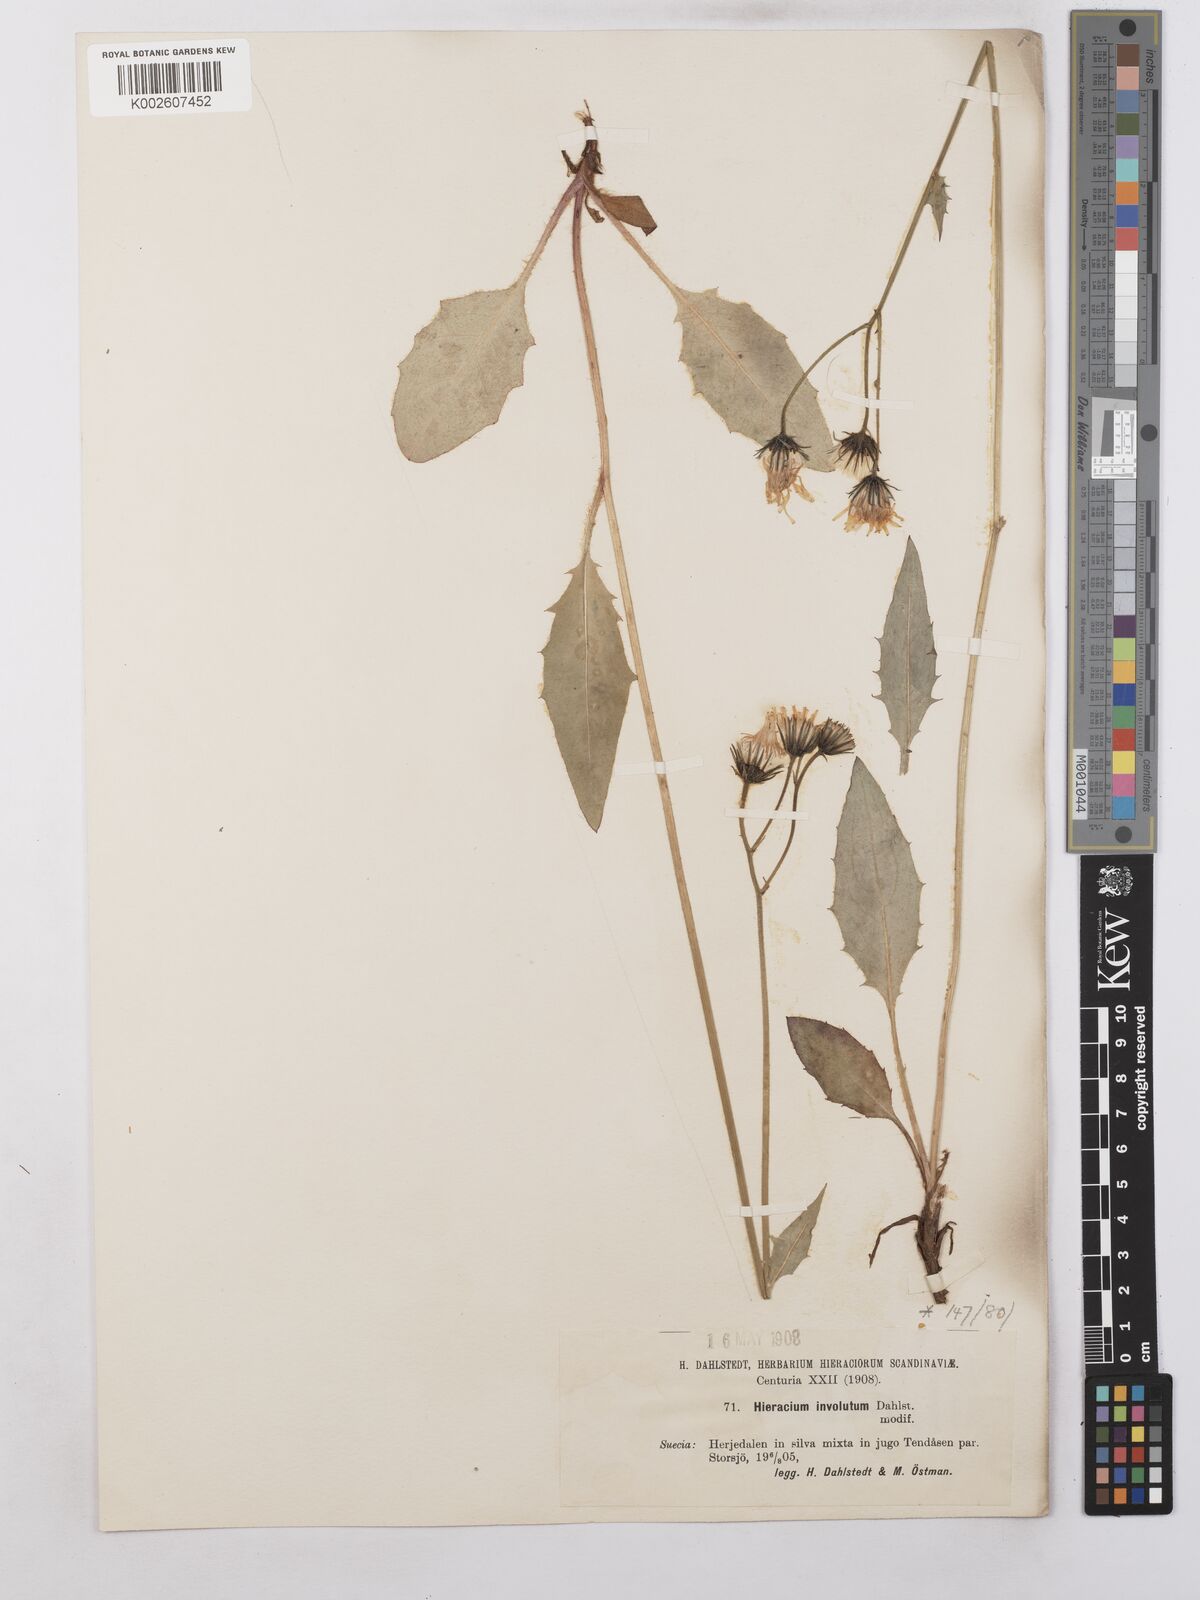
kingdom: Plantae
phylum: Tracheophyta
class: Magnoliopsida
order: Asterales
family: Asteraceae
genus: Hieracium
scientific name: Hieracium caesium
